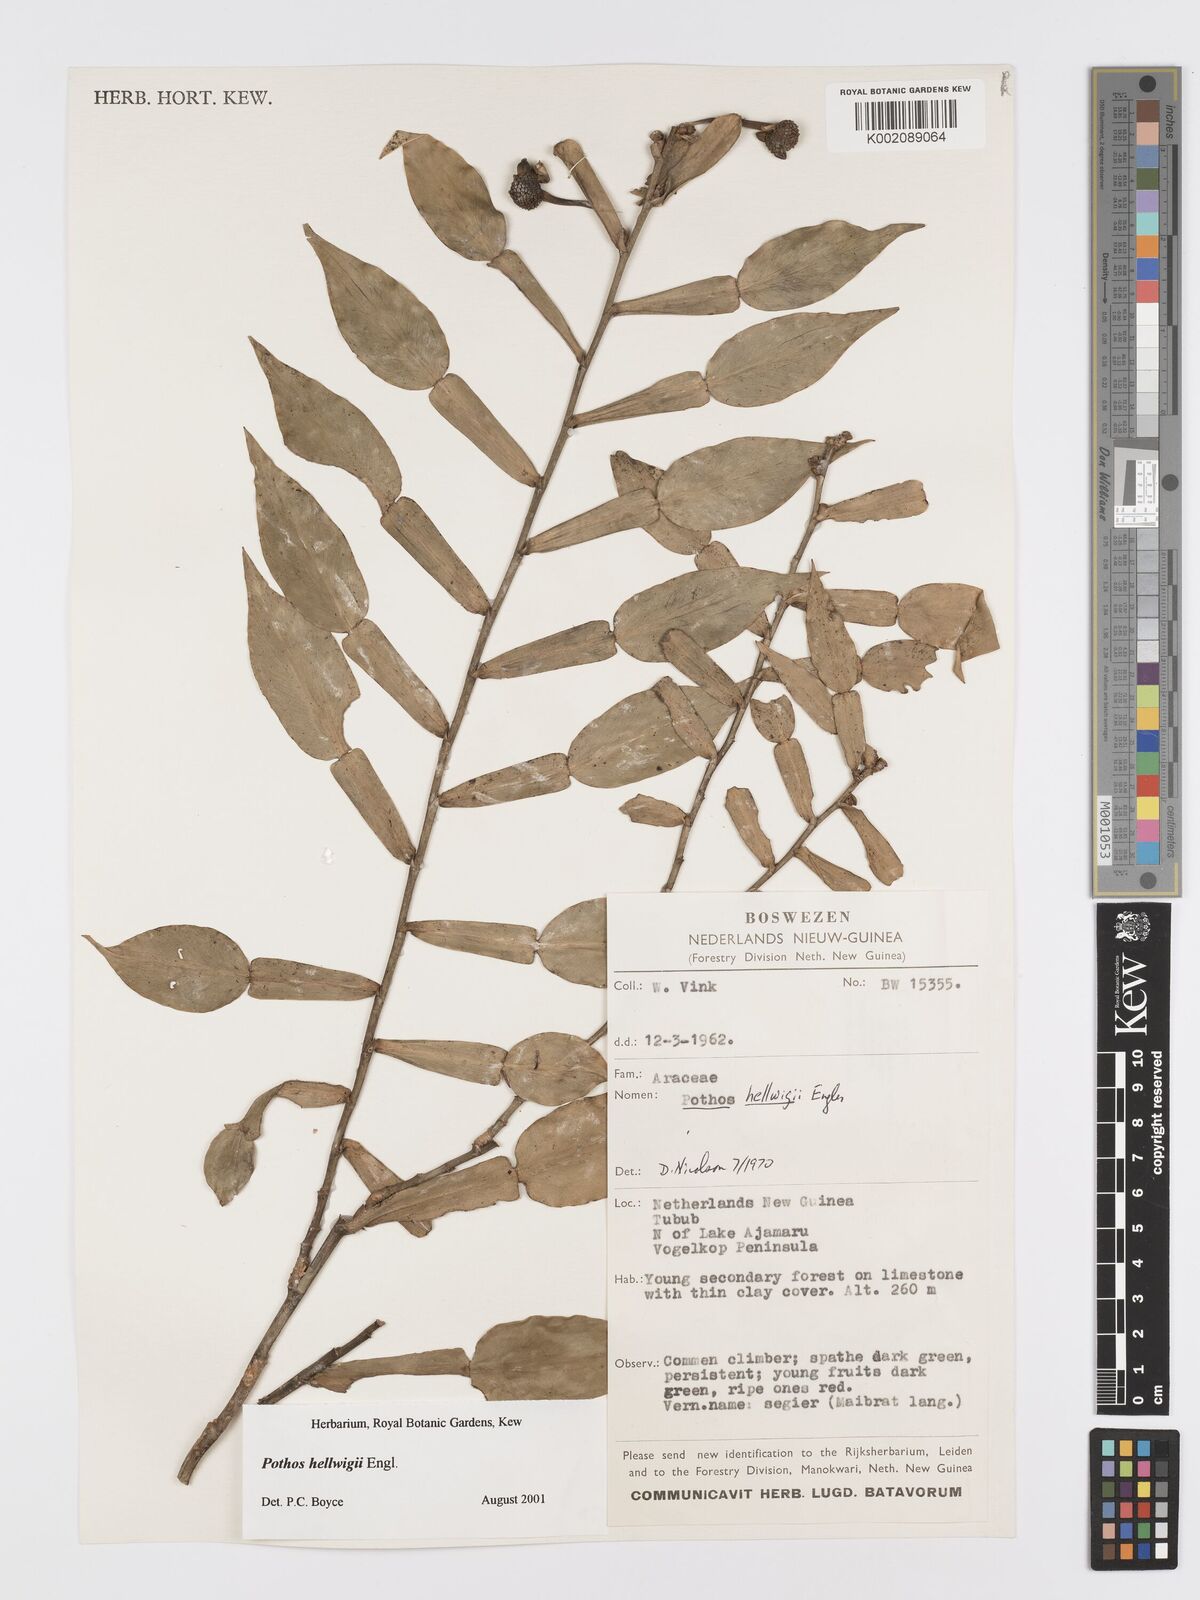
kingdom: Plantae
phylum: Tracheophyta
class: Liliopsida
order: Alismatales
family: Araceae
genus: Pothos
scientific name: Pothos hellwigii
